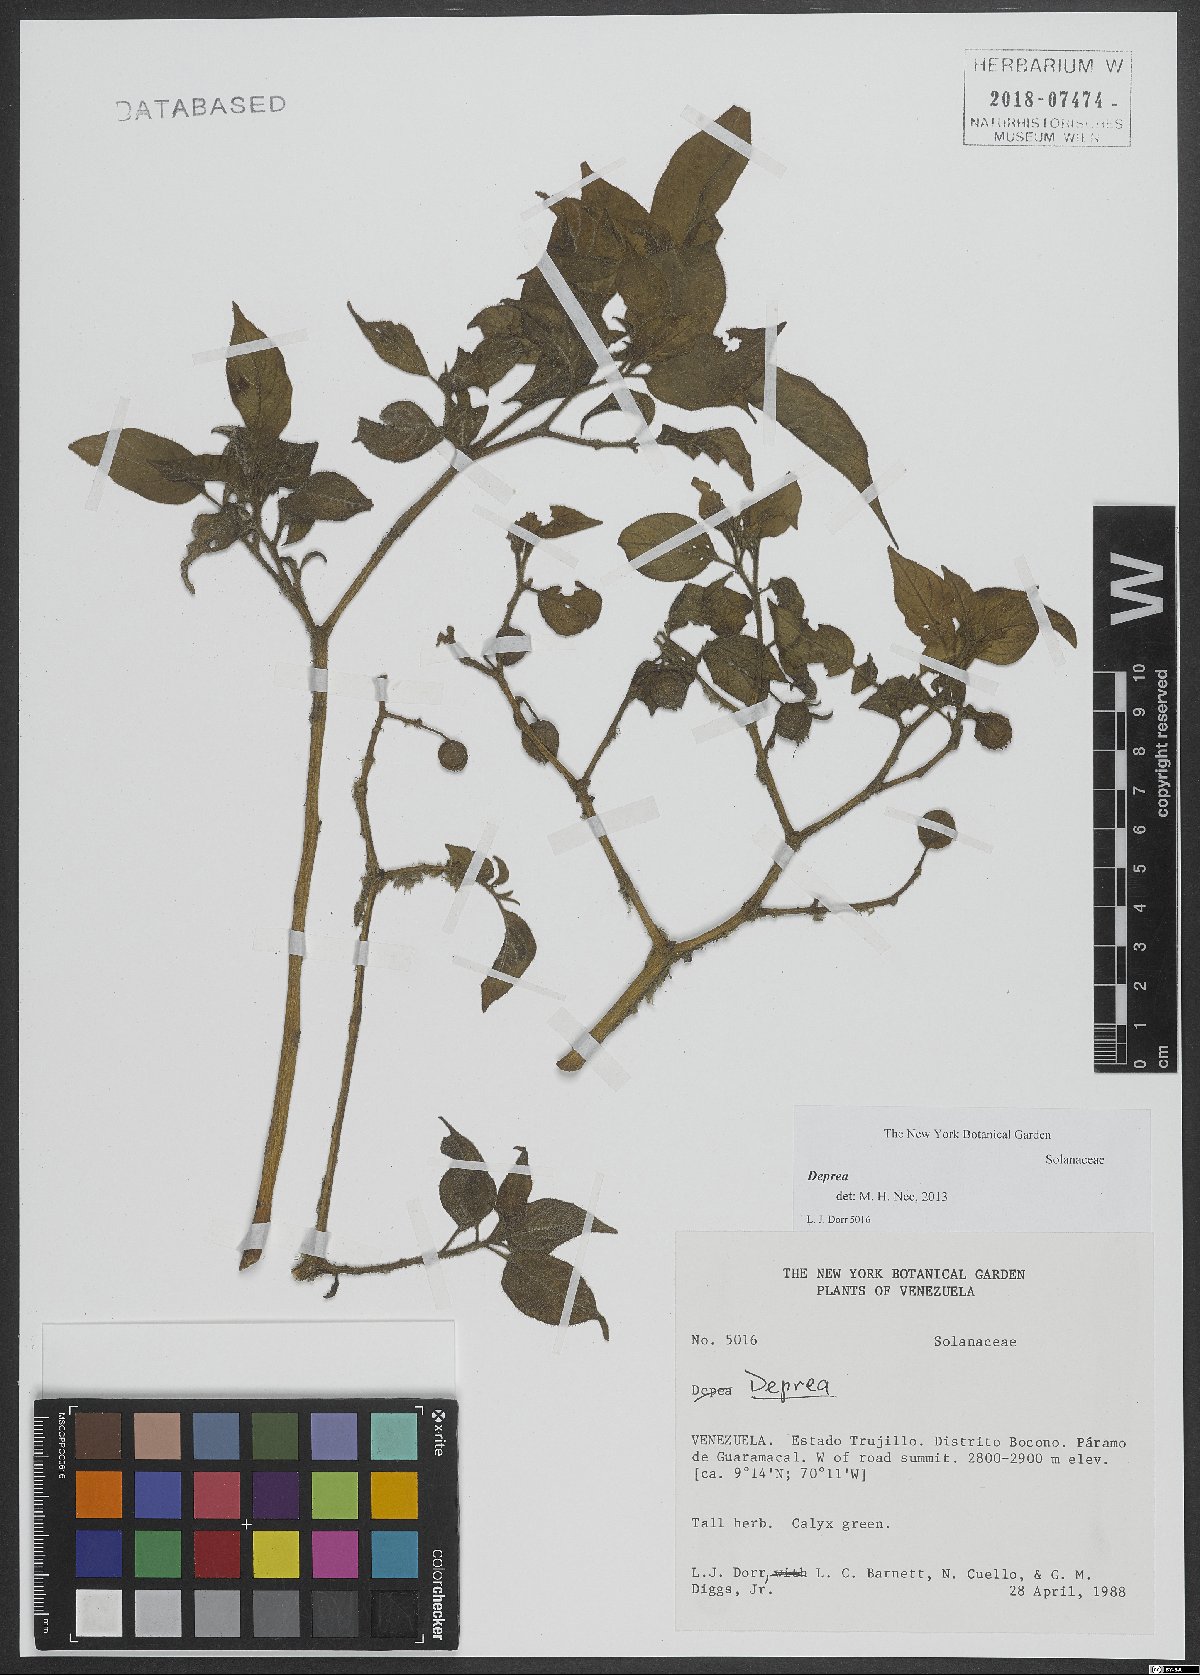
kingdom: Plantae
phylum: Tracheophyta
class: Magnoliopsida
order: Solanales
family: Solanaceae
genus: Deprea
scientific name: Deprea
